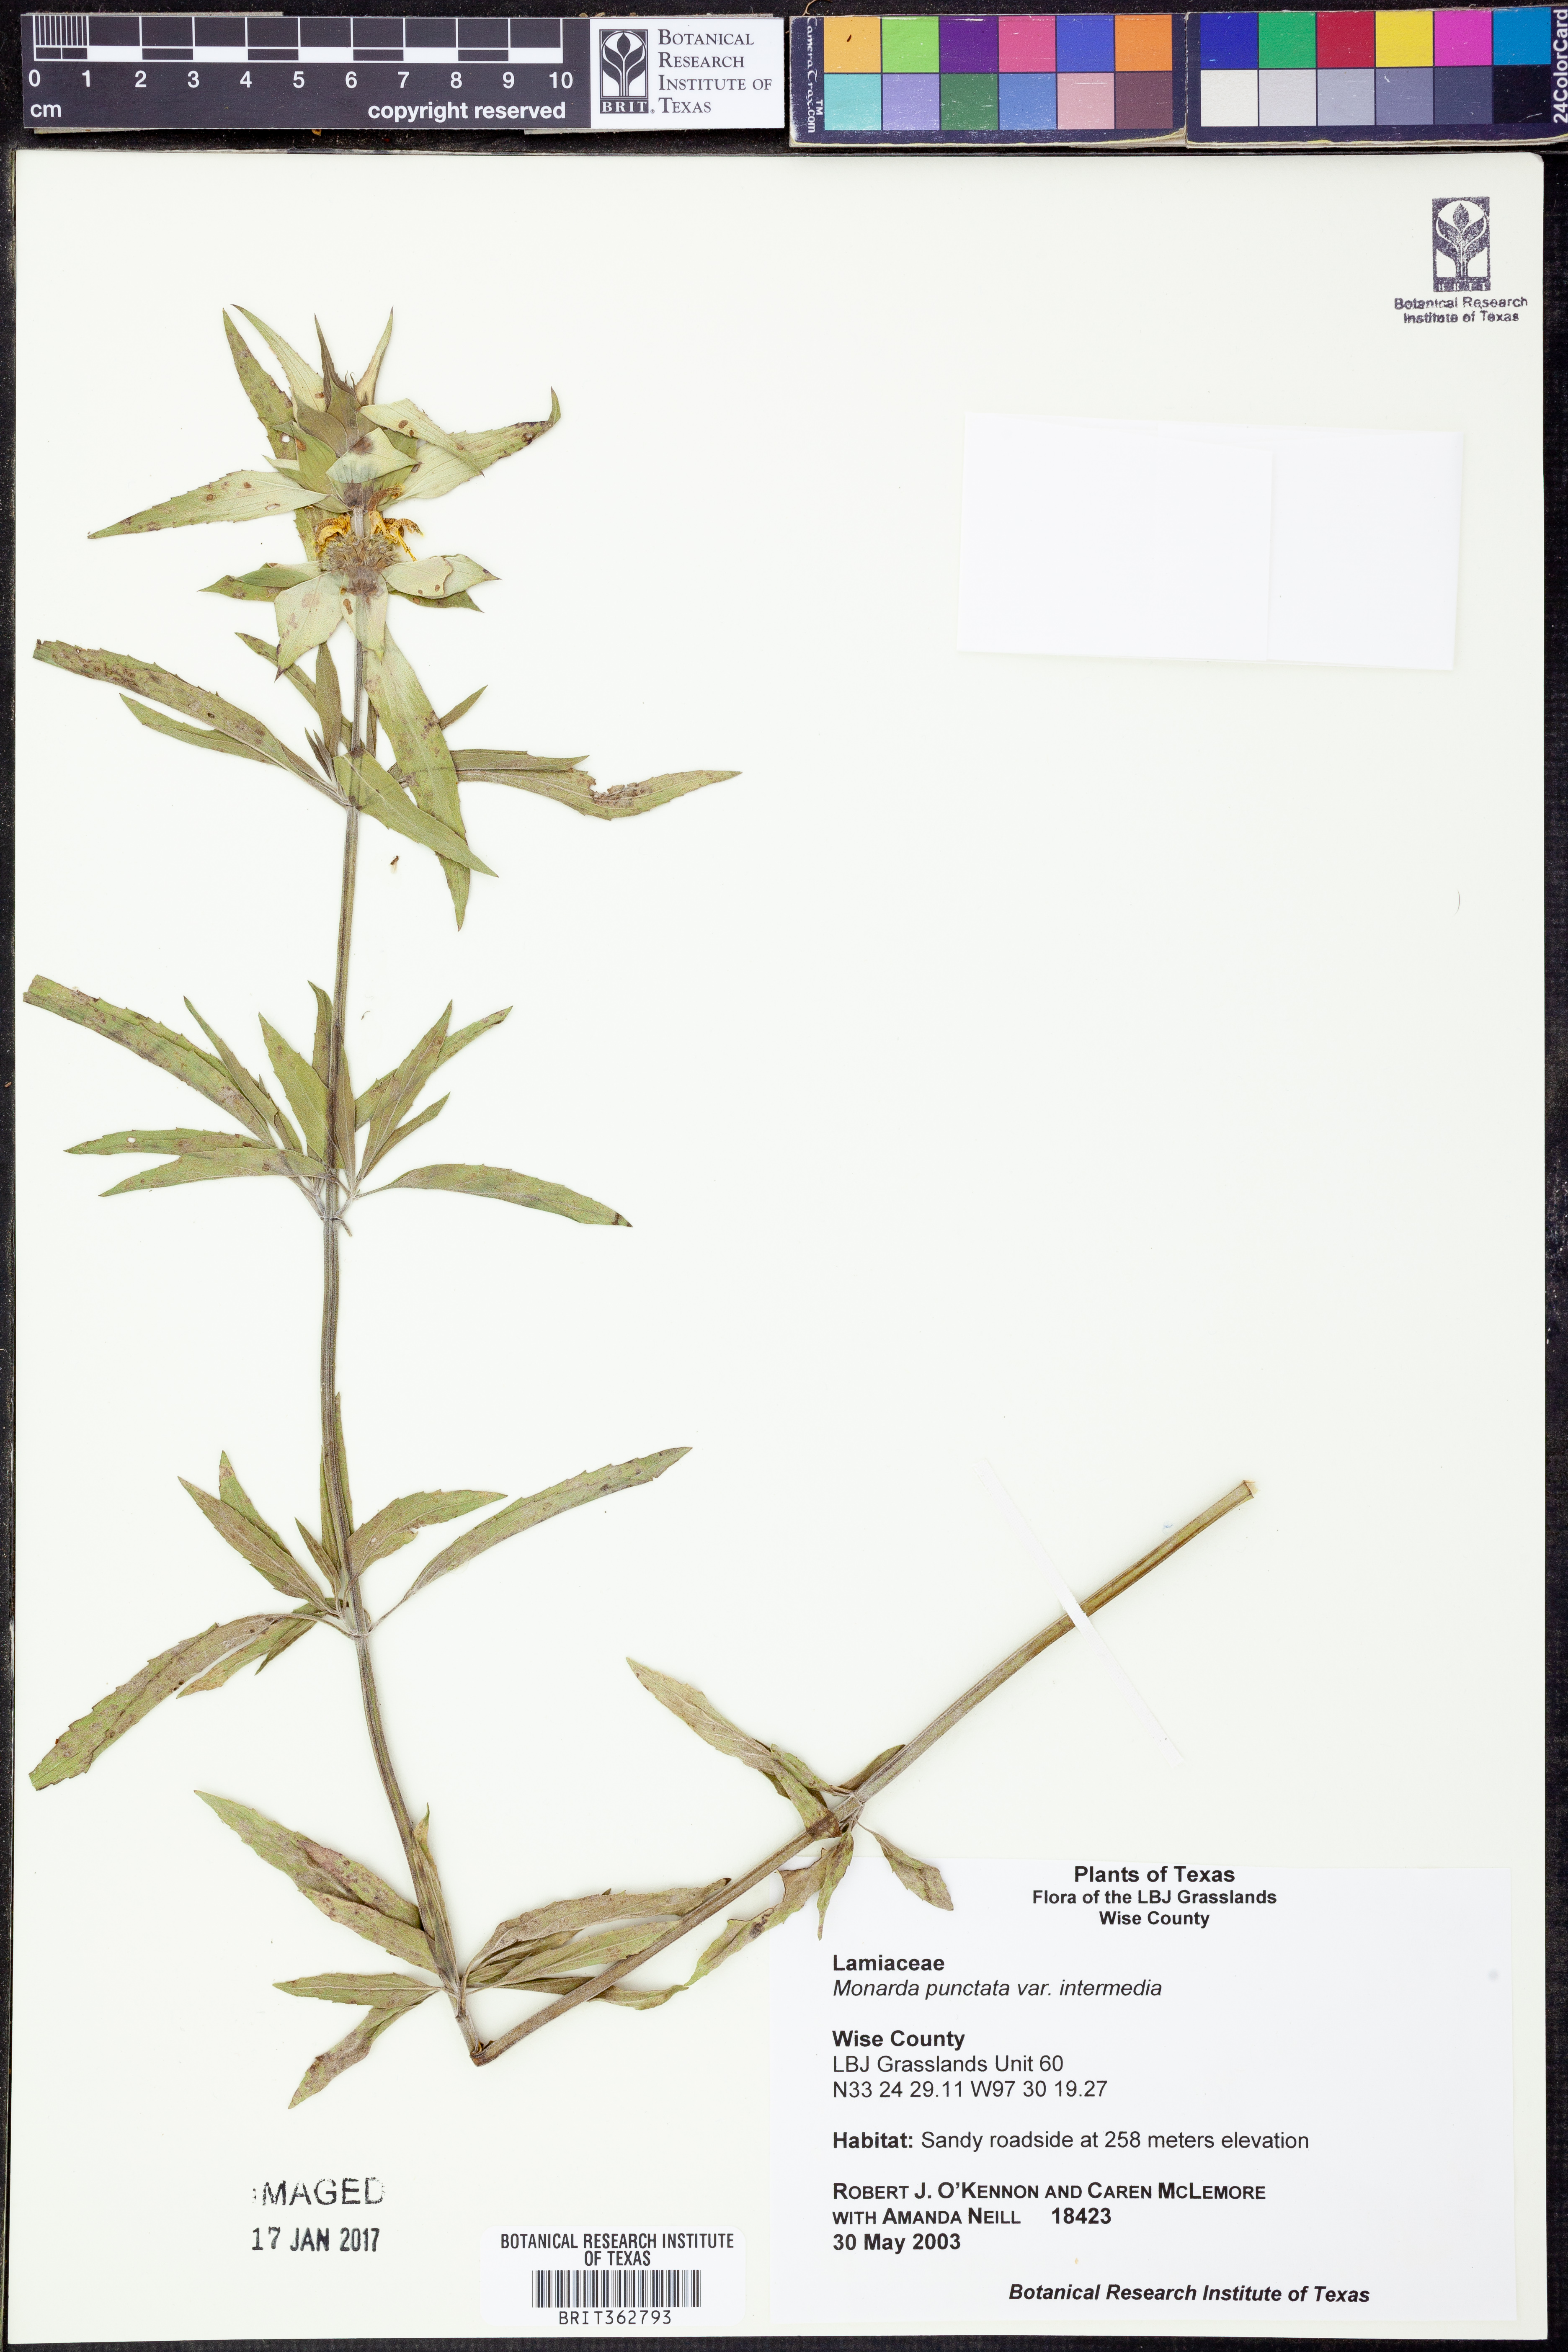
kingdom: Plantae
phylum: Tracheophyta
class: Magnoliopsida
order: Lamiales
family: Lamiaceae
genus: Monarda
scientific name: Monarda punctata
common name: Dotted monarda
